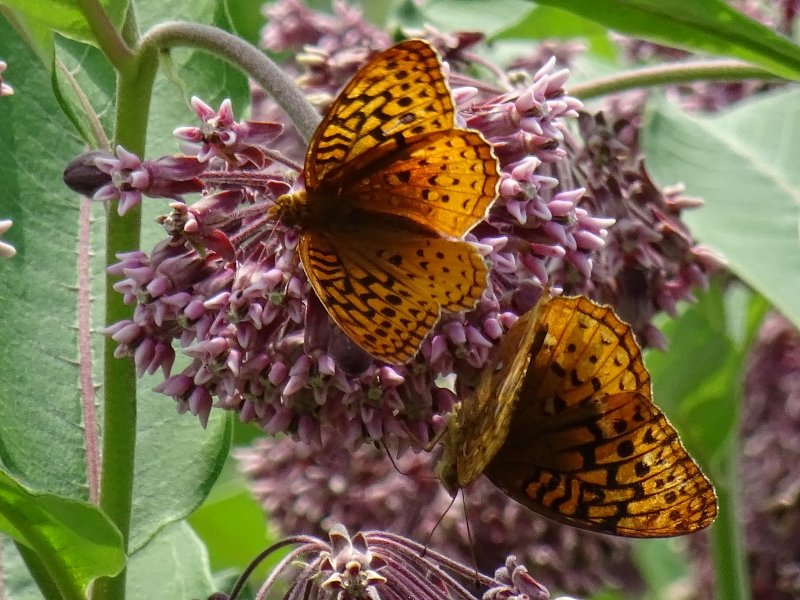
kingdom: Animalia
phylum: Arthropoda
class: Insecta
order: Lepidoptera
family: Nymphalidae
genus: Speyeria
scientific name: Speyeria cybele
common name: Great Spangled Fritillary
